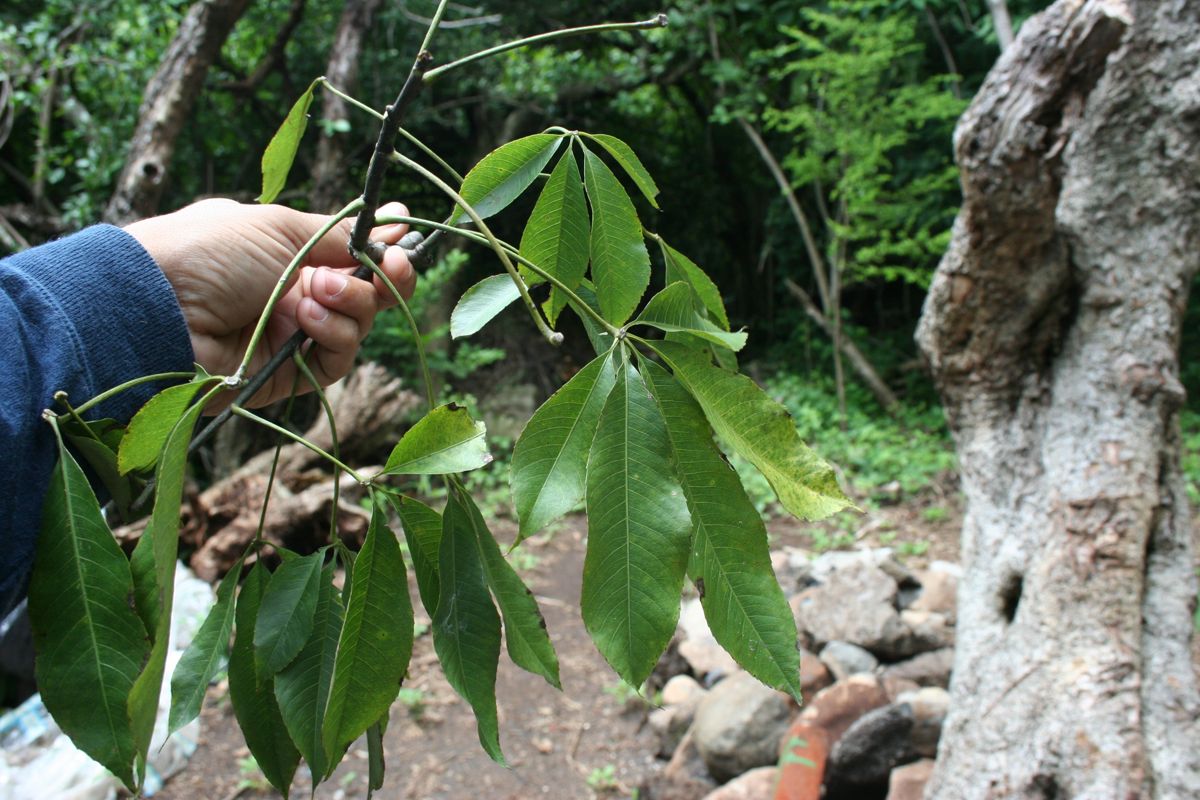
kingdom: Plantae
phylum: Tracheophyta
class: Magnoliopsida
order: Malvales
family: Malvaceae
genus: Ceiba
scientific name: Ceiba speciosa
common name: Silk-floss tree
